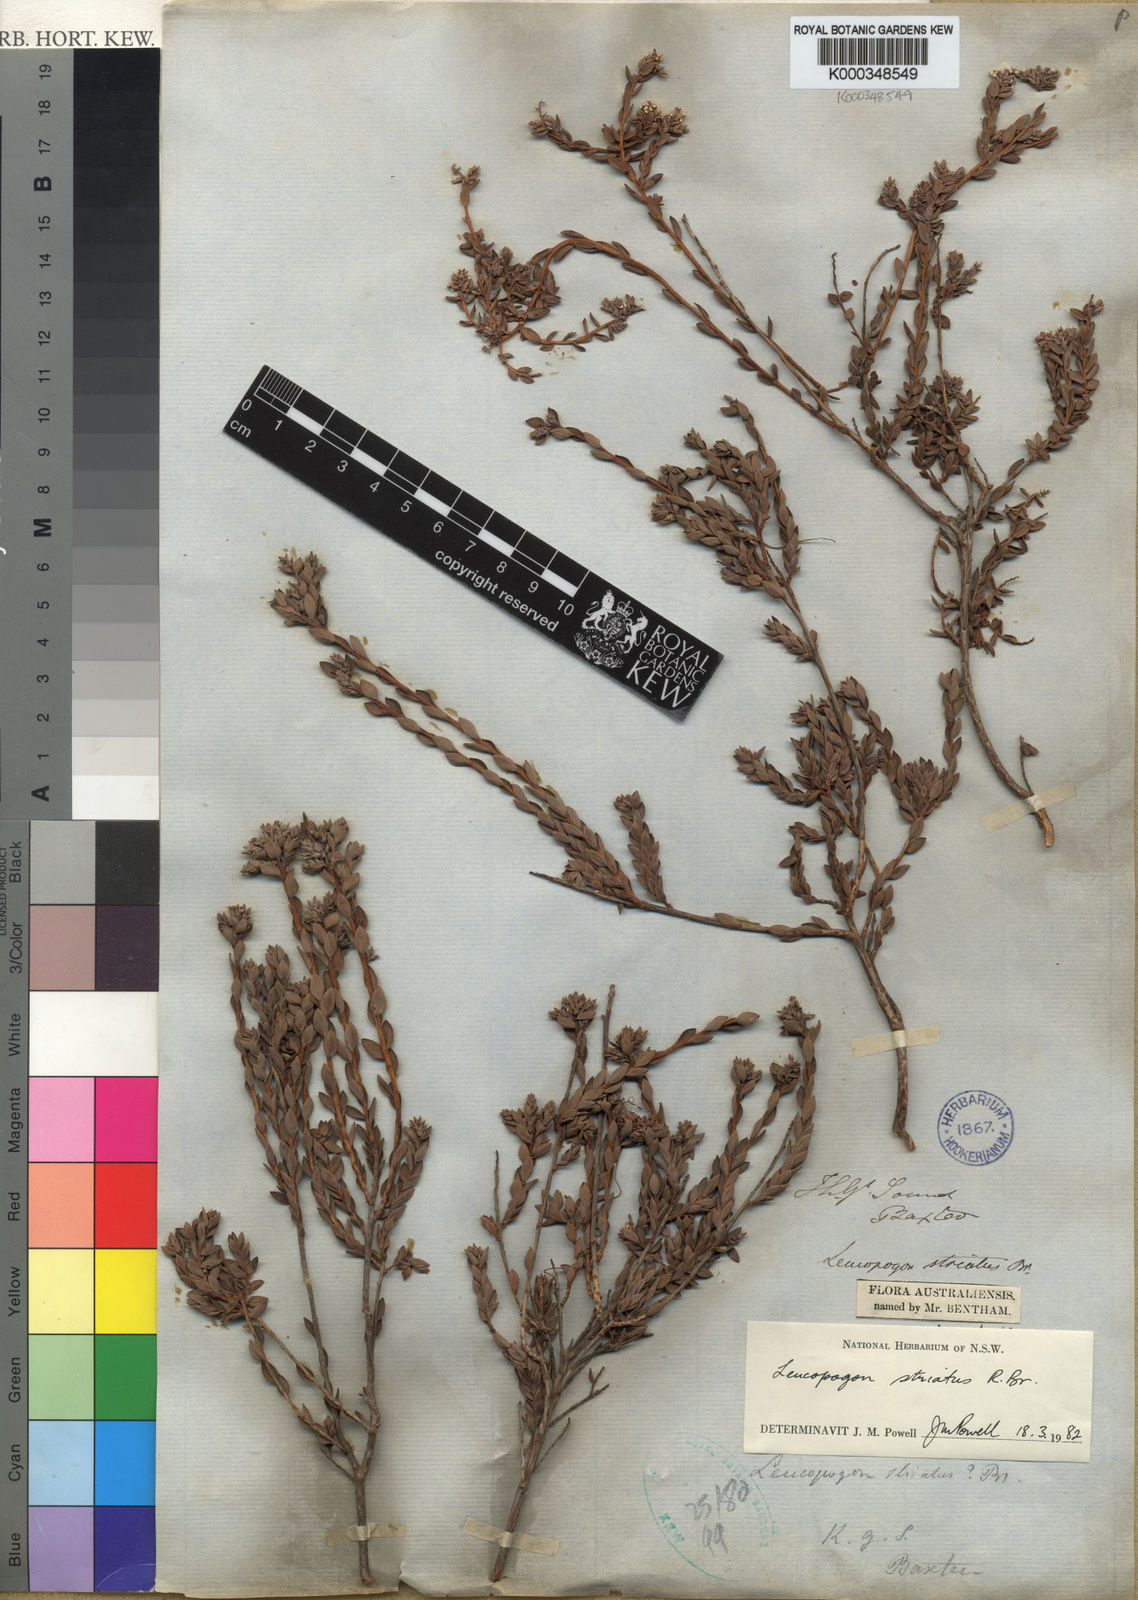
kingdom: Plantae
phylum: Tracheophyta
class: Magnoliopsida
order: Ericales
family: Ericaceae
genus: Styphelia
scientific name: Styphelia striata
